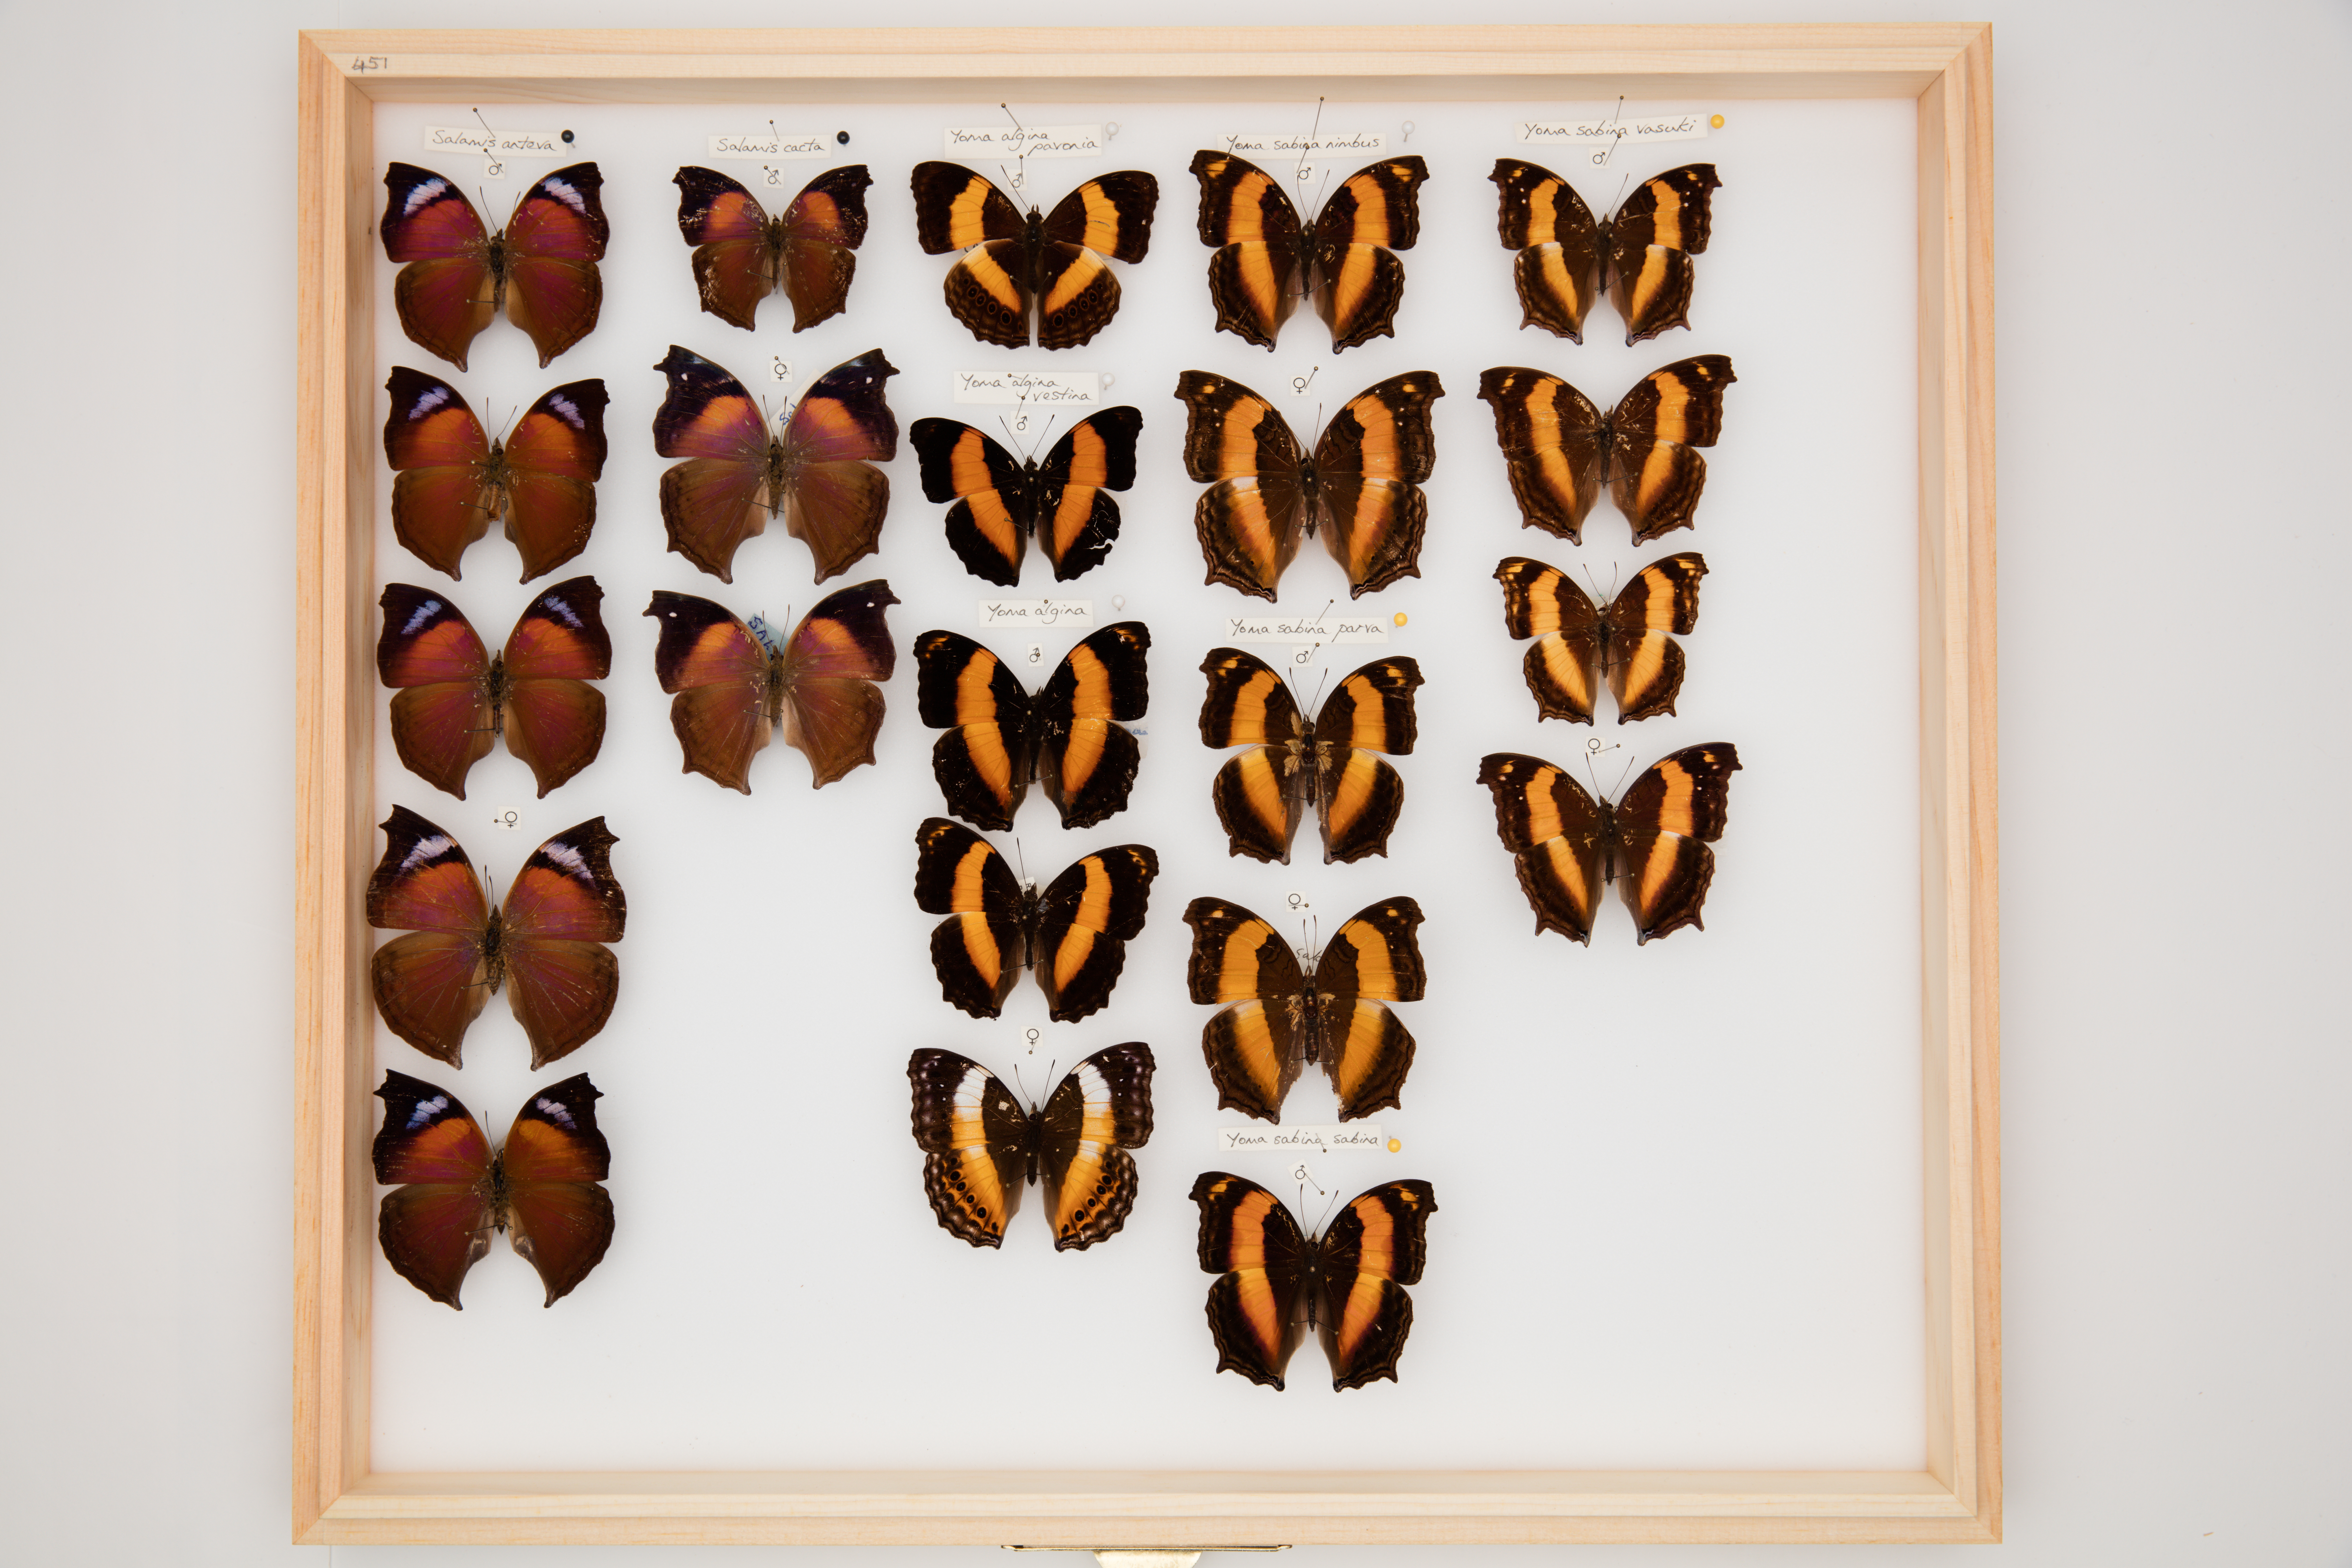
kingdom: Animalia
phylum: Arthropoda
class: Insecta
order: Lepidoptera
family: Nymphalidae
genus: Yoma
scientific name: Yoma sabina
